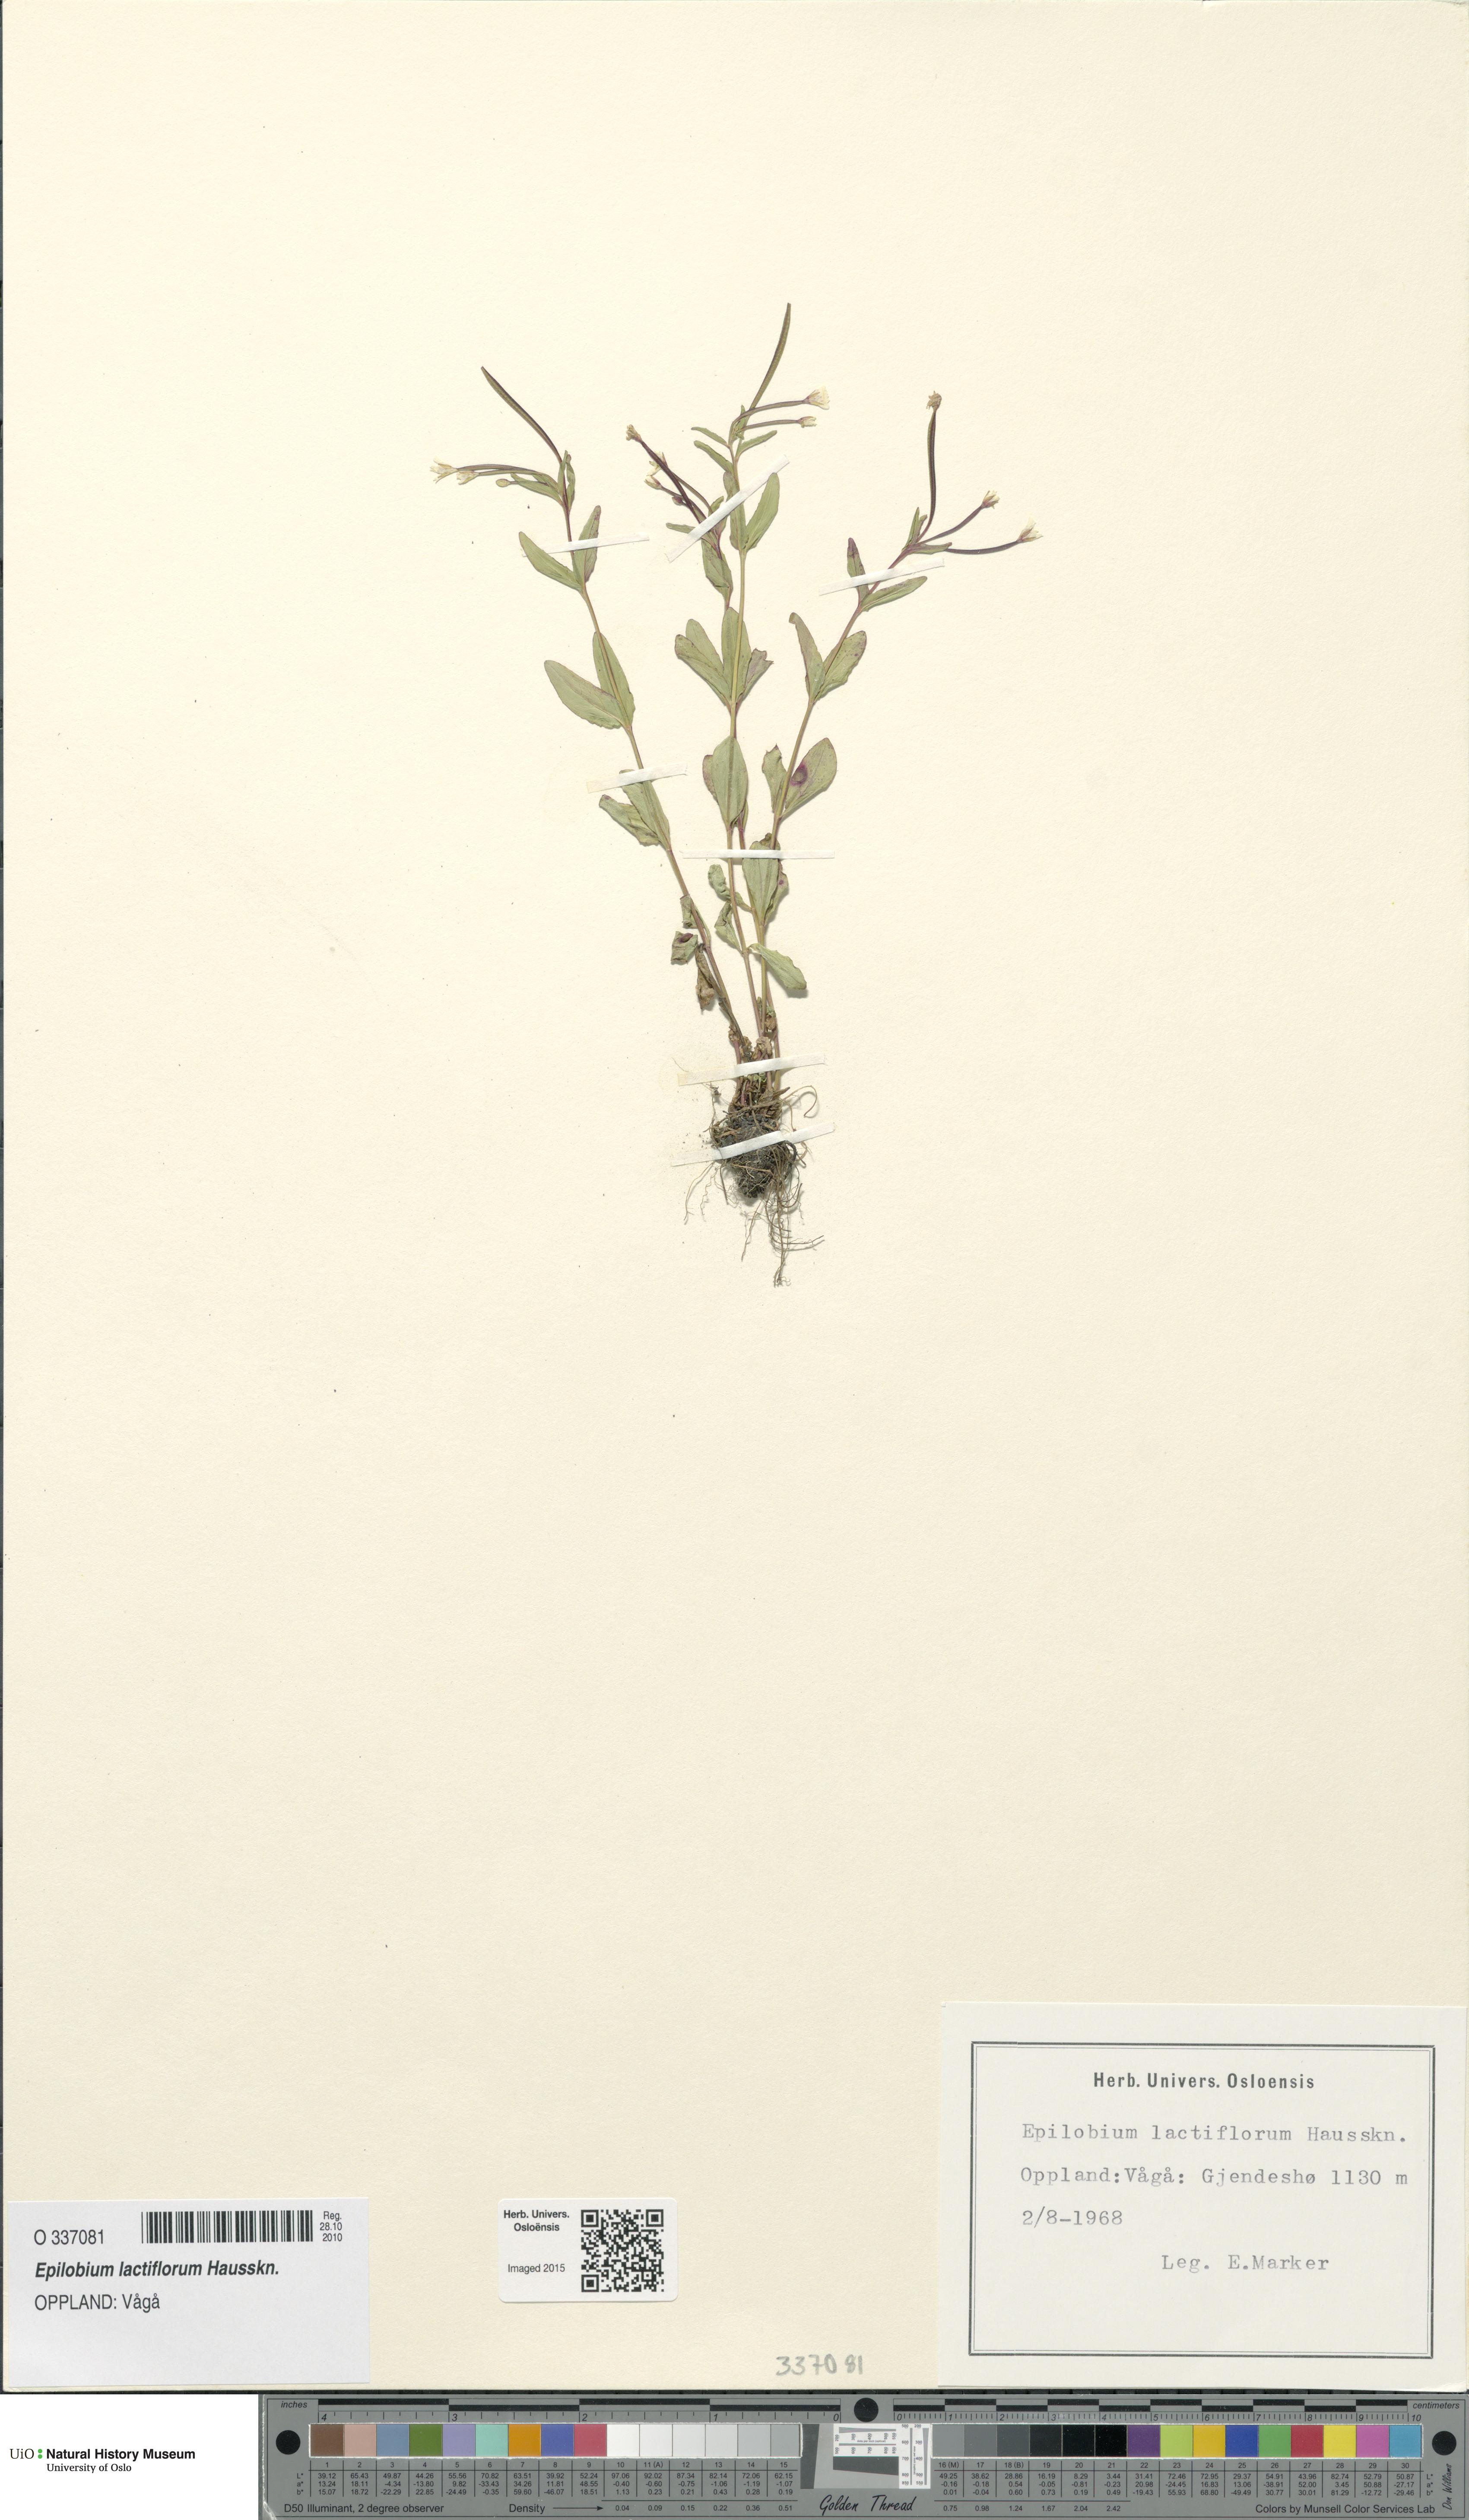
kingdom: Plantae
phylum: Tracheophyta
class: Magnoliopsida
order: Myrtales
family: Onagraceae
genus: Epilobium
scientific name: Epilobium lactiflorum
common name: Milkflower willowherb
